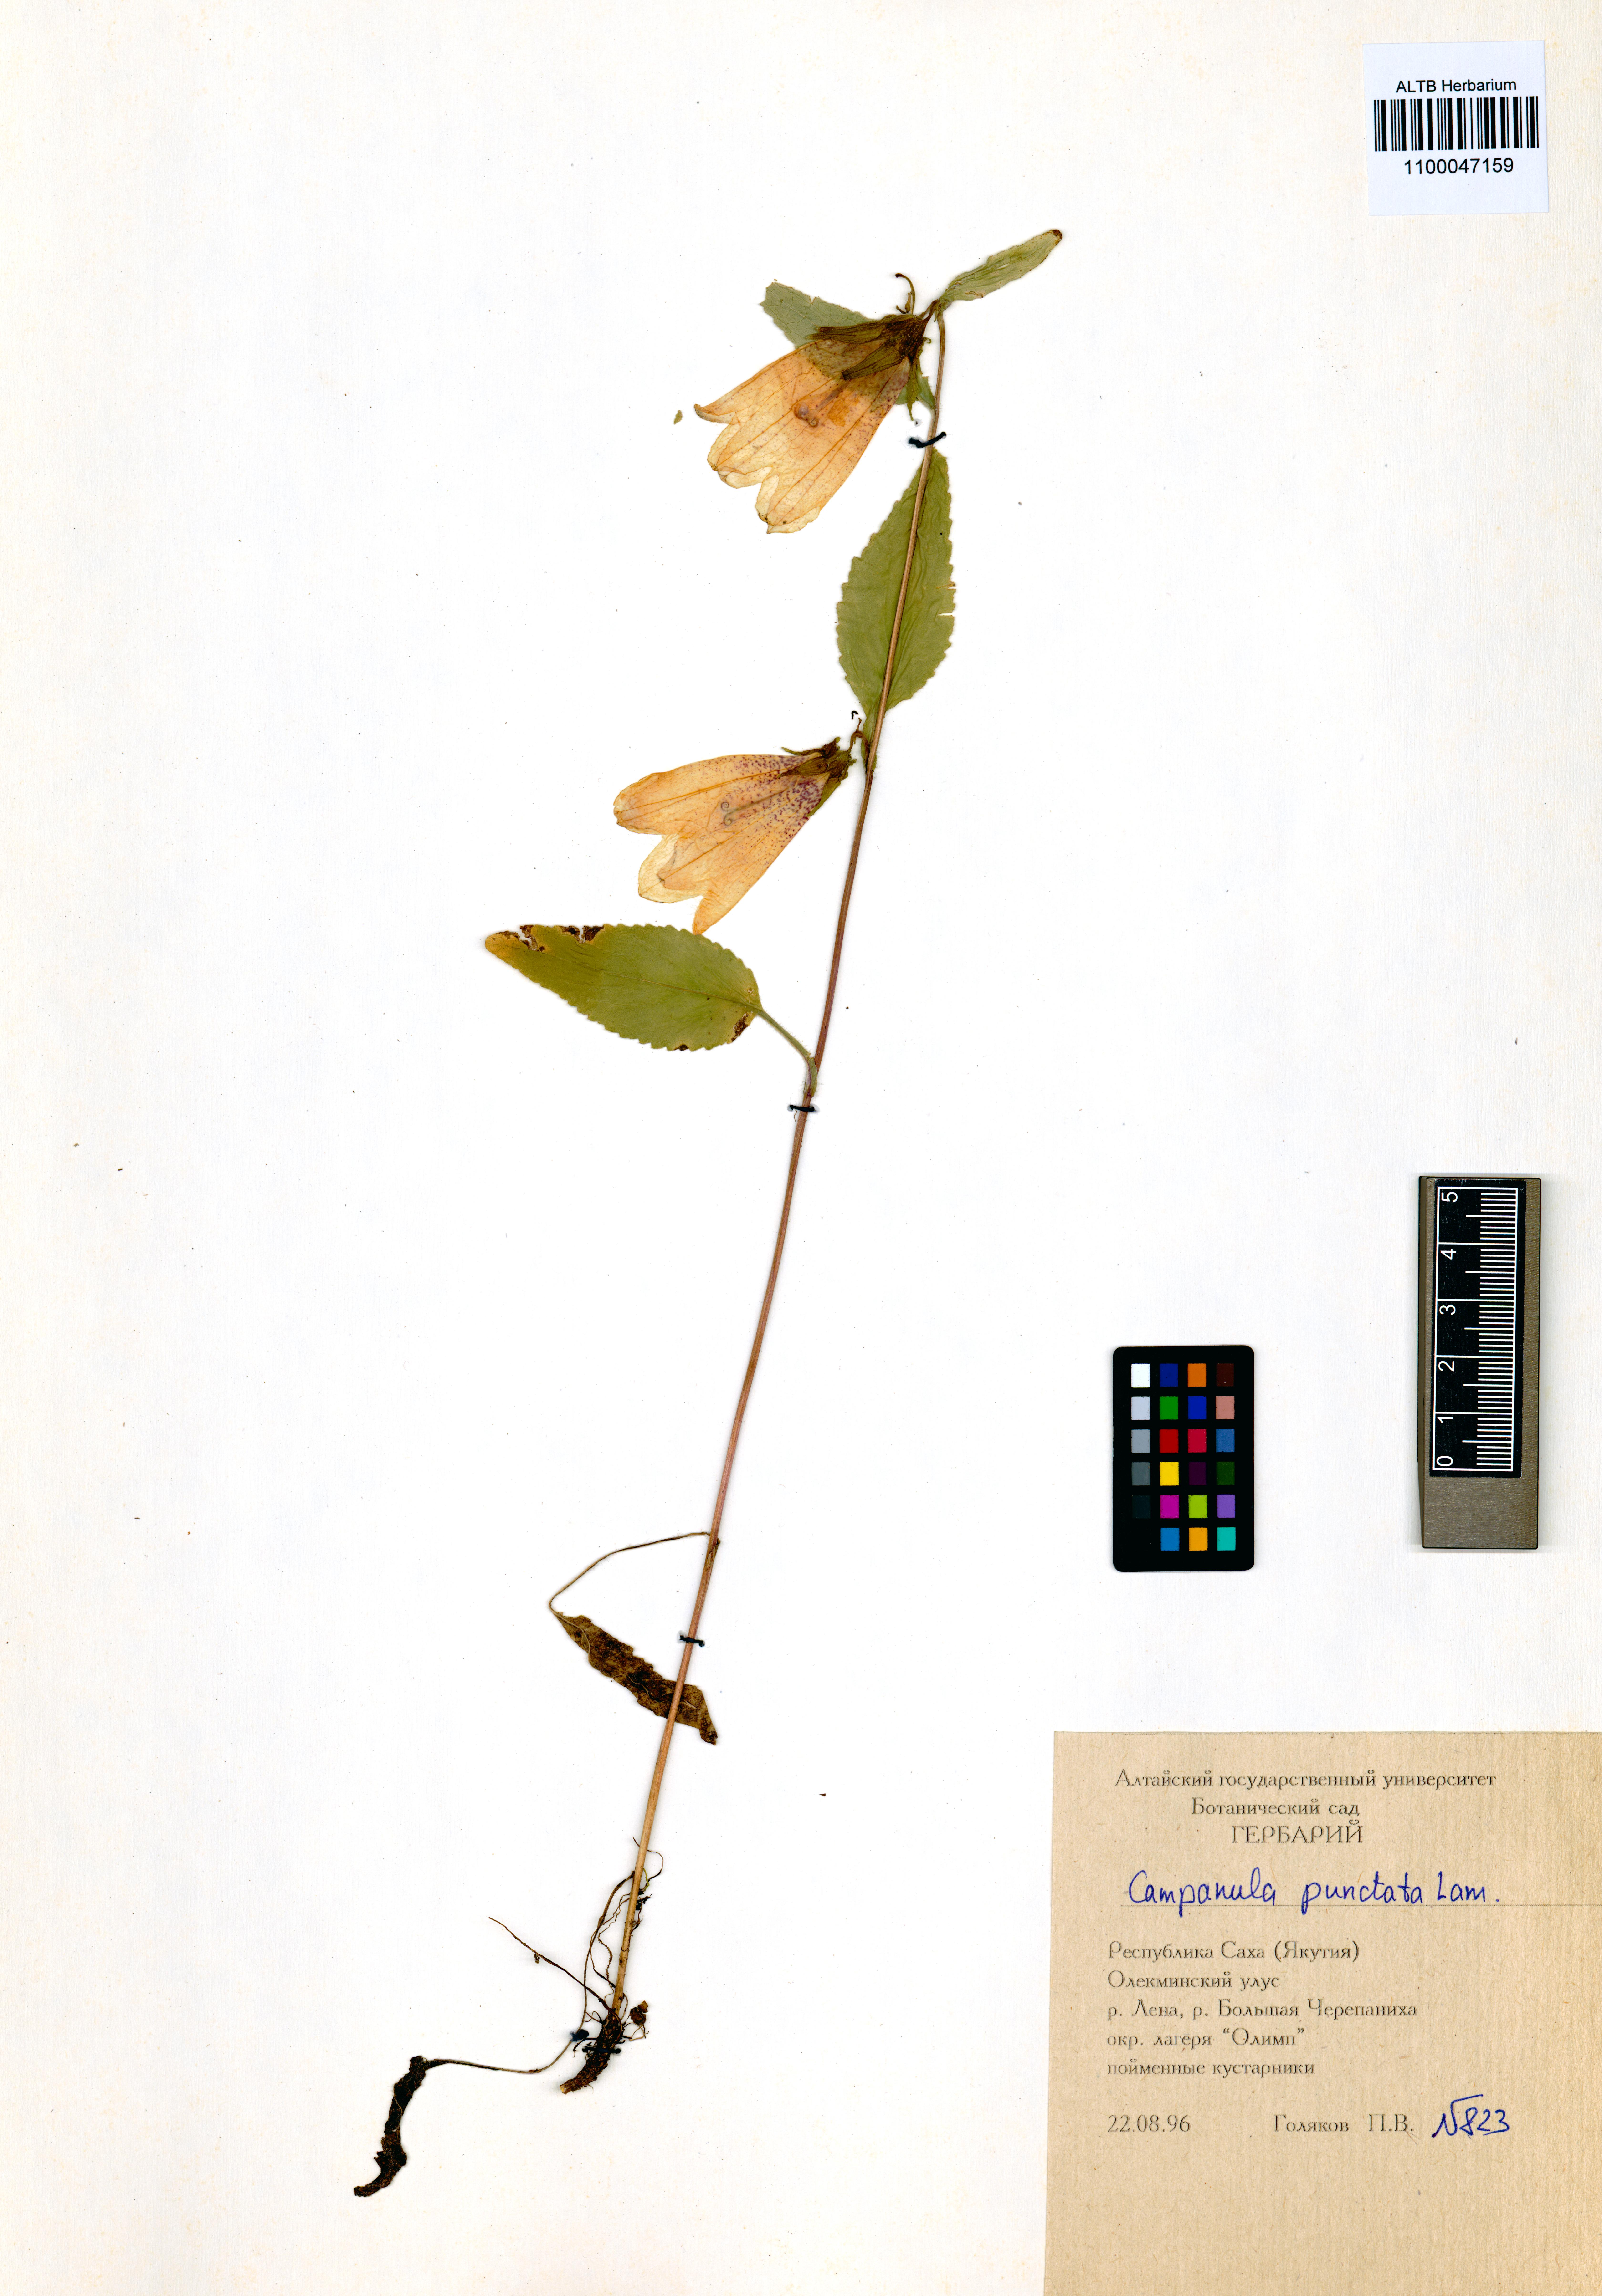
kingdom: Plantae
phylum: Tracheophyta
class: Magnoliopsida
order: Asterales
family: Campanulaceae
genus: Campanula
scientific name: Campanula punctata
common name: Spotted bellflower
